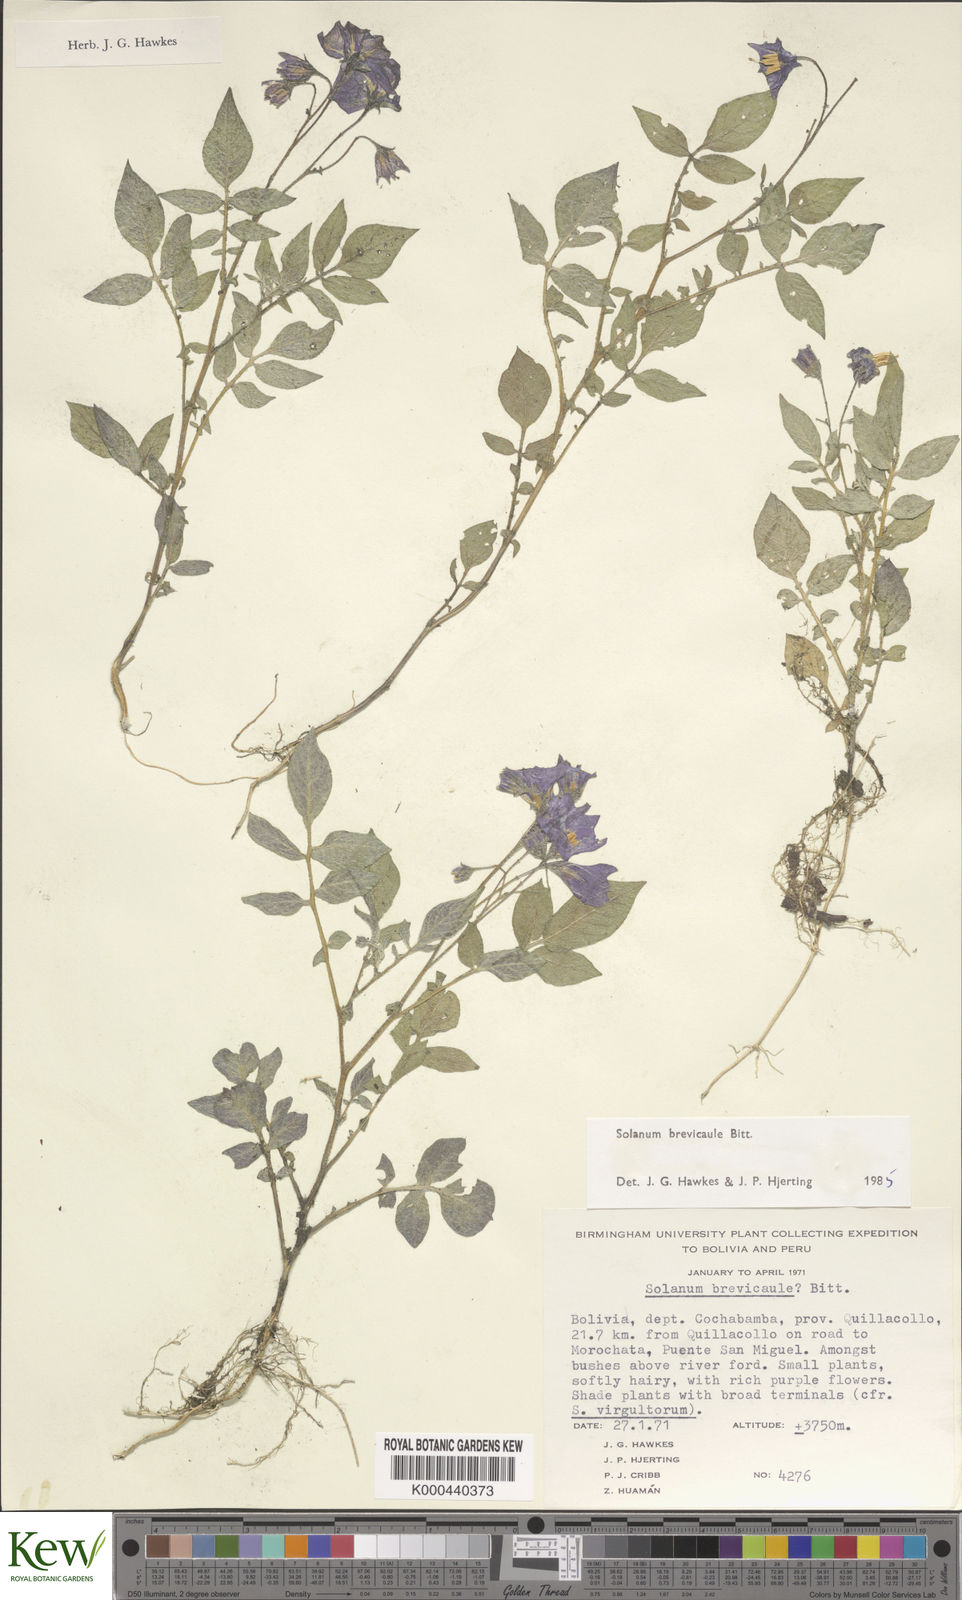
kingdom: Plantae
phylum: Tracheophyta
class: Magnoliopsida
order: Solanales
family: Solanaceae
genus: Solanum
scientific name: Solanum brevicaule
